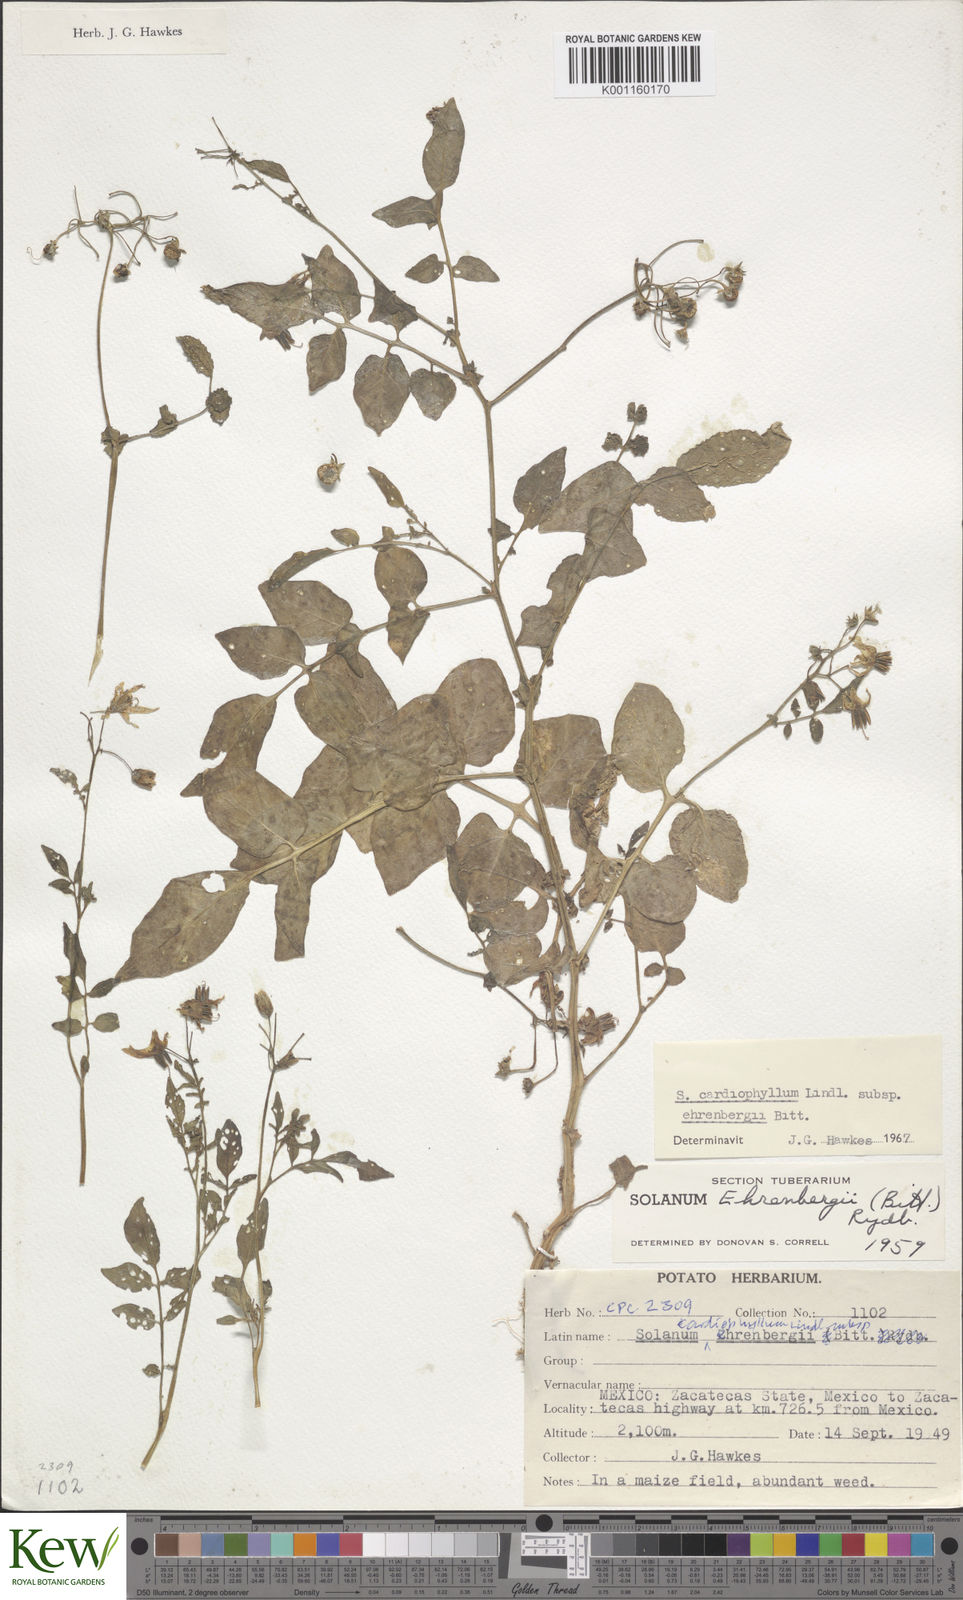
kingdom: Plantae
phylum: Tracheophyta
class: Magnoliopsida
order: Solanales
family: Solanaceae
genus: Solanum
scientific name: Solanum cardiophyllum
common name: Heartleaf horsenettle
